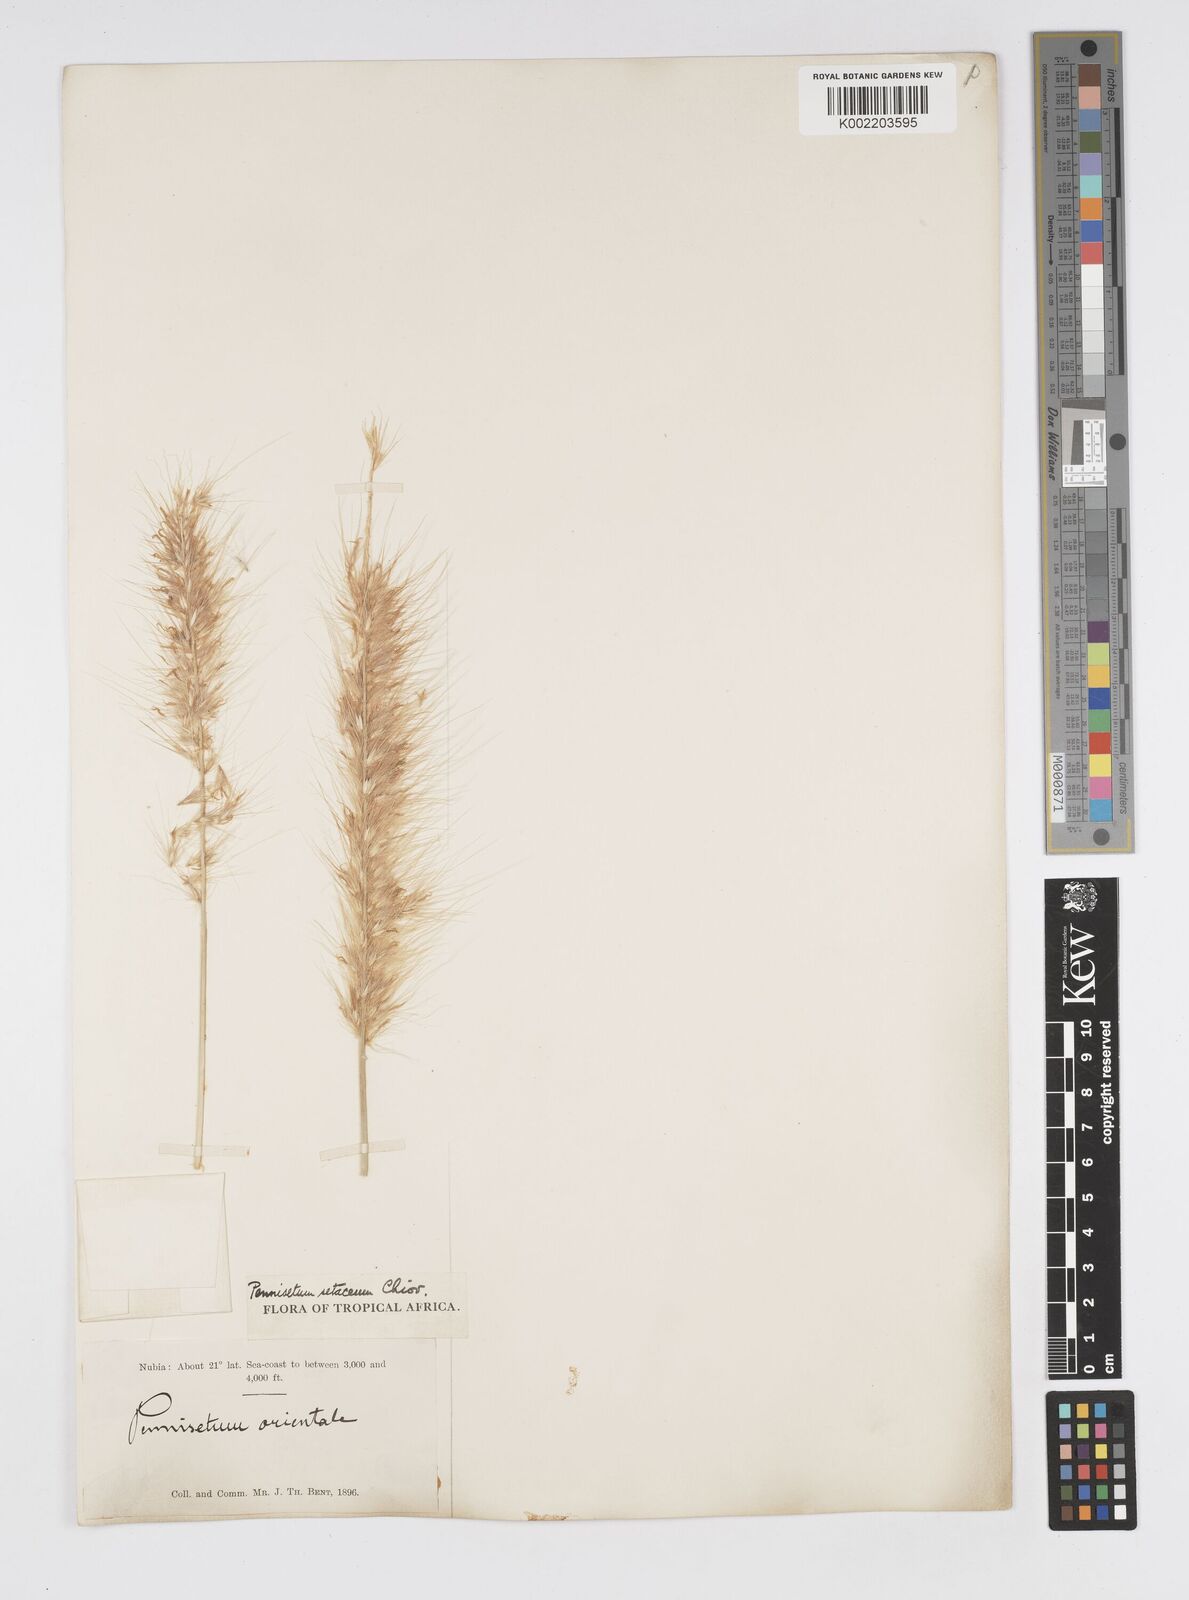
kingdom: Plantae
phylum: Tracheophyta
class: Liliopsida
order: Poales
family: Poaceae
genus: Cenchrus
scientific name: Cenchrus setaceus
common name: Crimson fountaingrass
